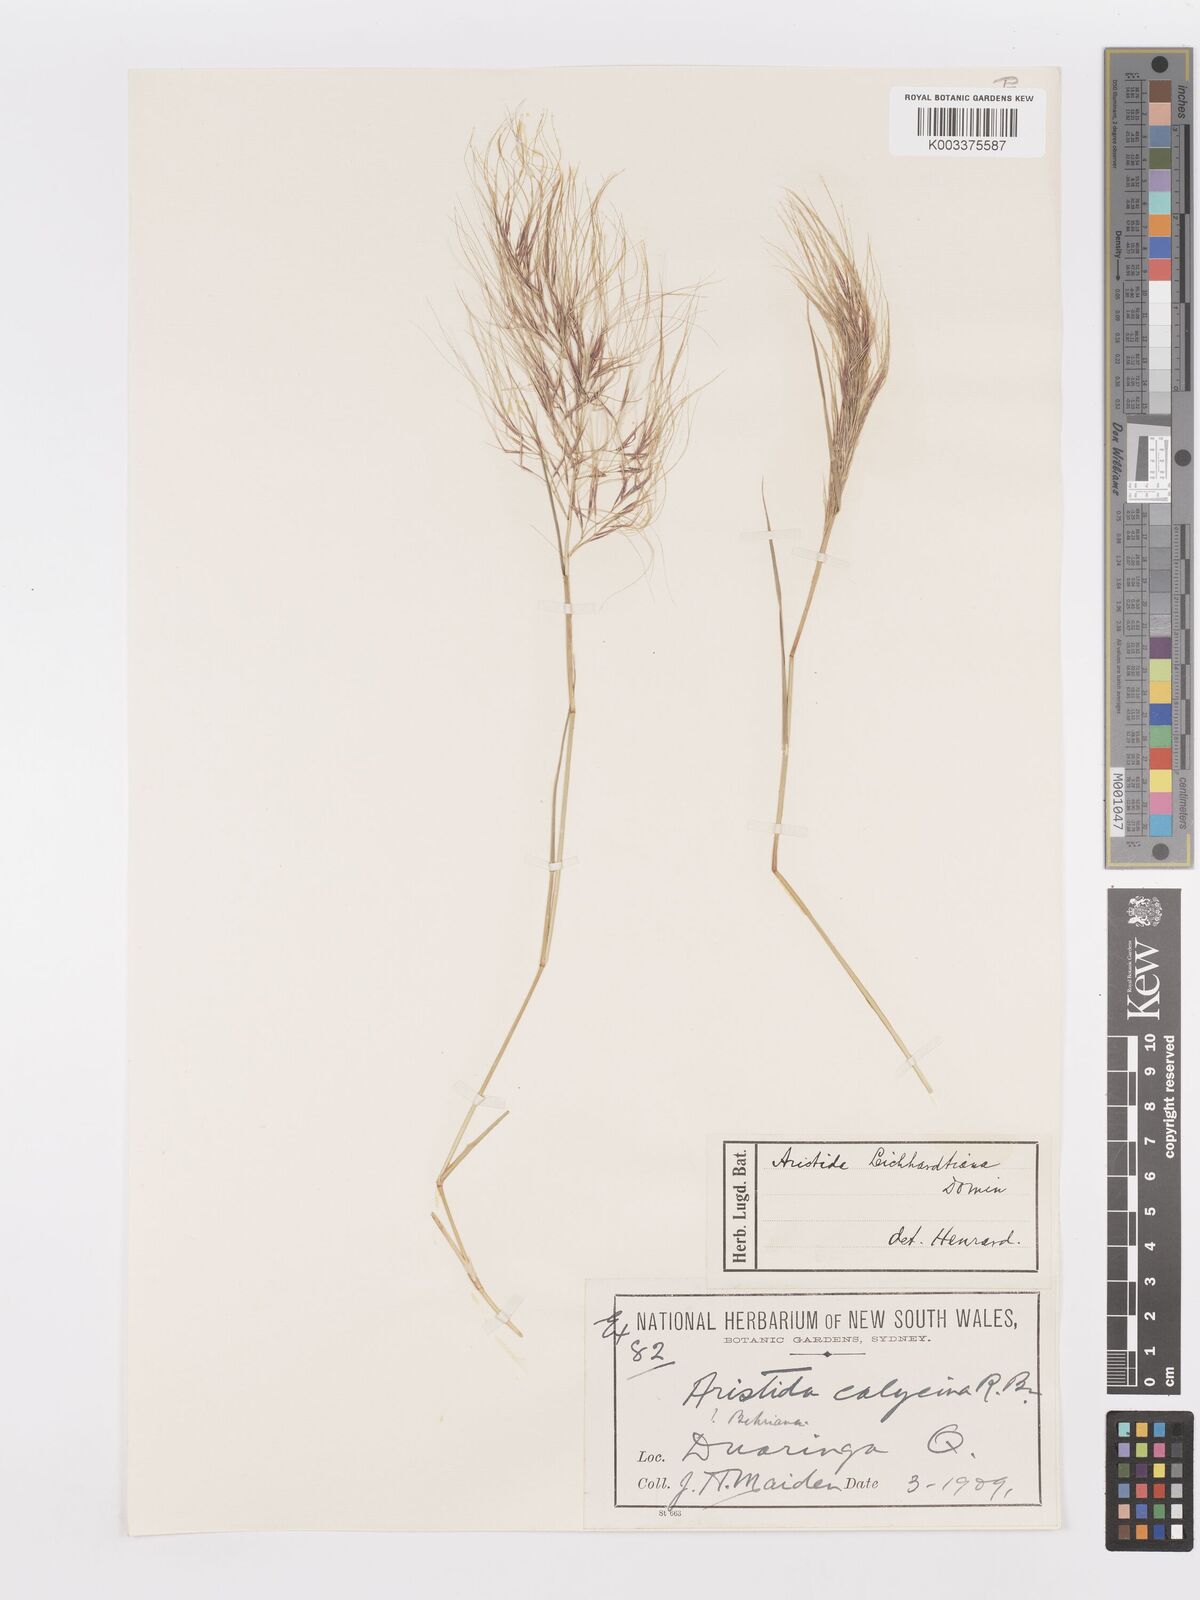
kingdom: Plantae
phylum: Tracheophyta
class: Liliopsida
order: Poales
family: Poaceae
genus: Aristida
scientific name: Aristida leichhardtiana
